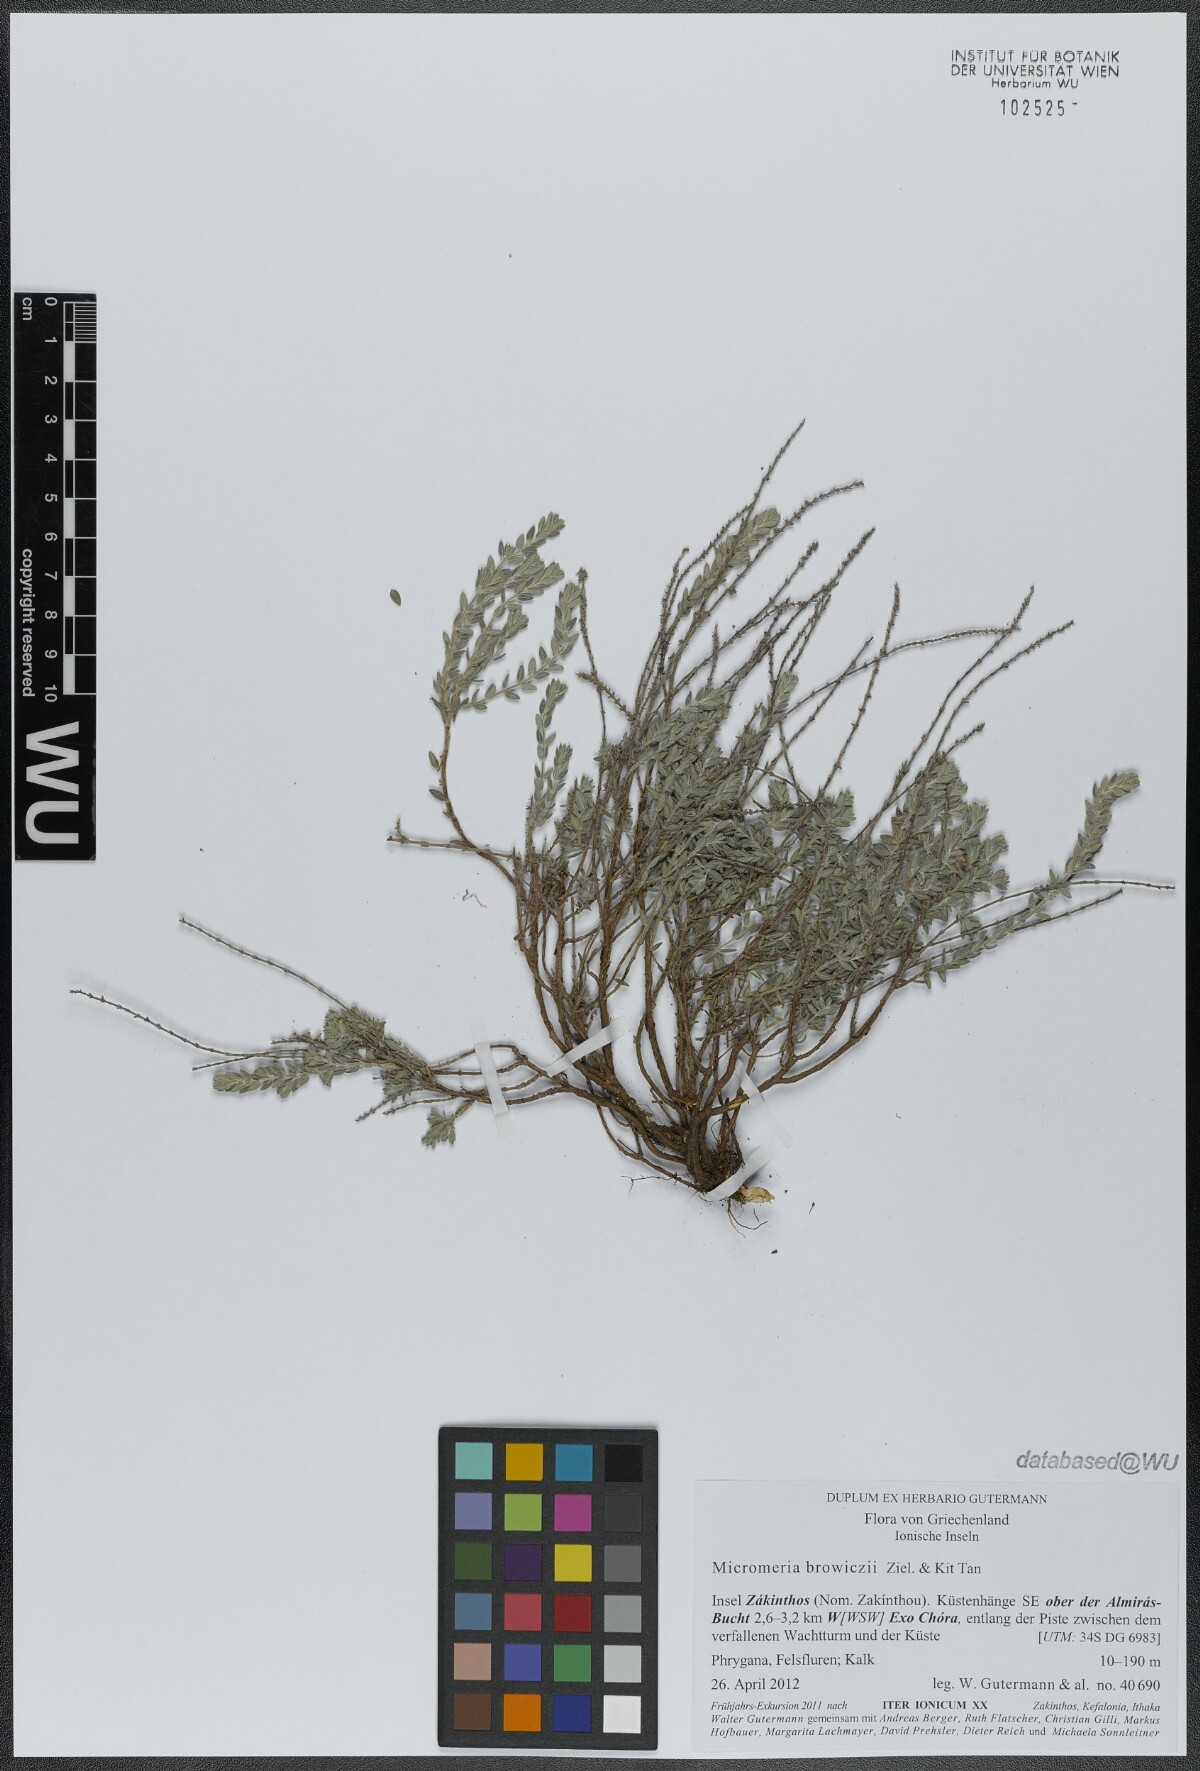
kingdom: Plantae
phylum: Tracheophyta
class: Magnoliopsida
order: Lamiales
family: Lamiaceae
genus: Micromeria
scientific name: Micromeria browiczii
